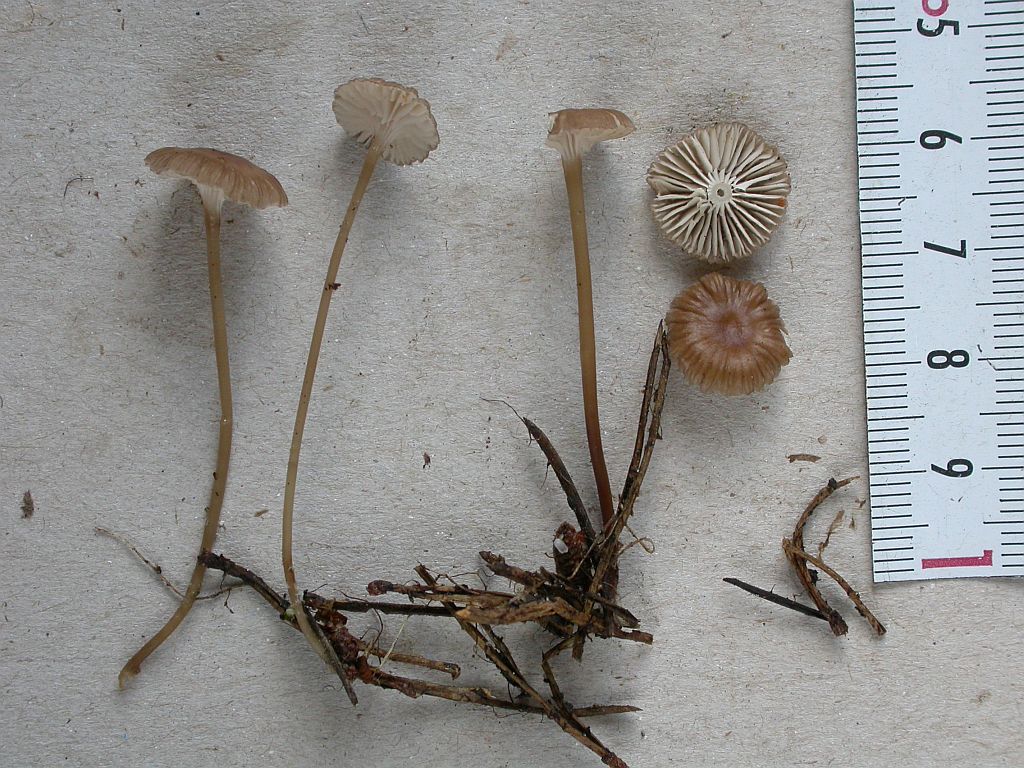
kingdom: Fungi
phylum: Basidiomycota
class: Agaricomycetes
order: Agaricales
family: Mycenaceae
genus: Mycena
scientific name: Mycena clavicularis
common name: fyrre-huesvamp
